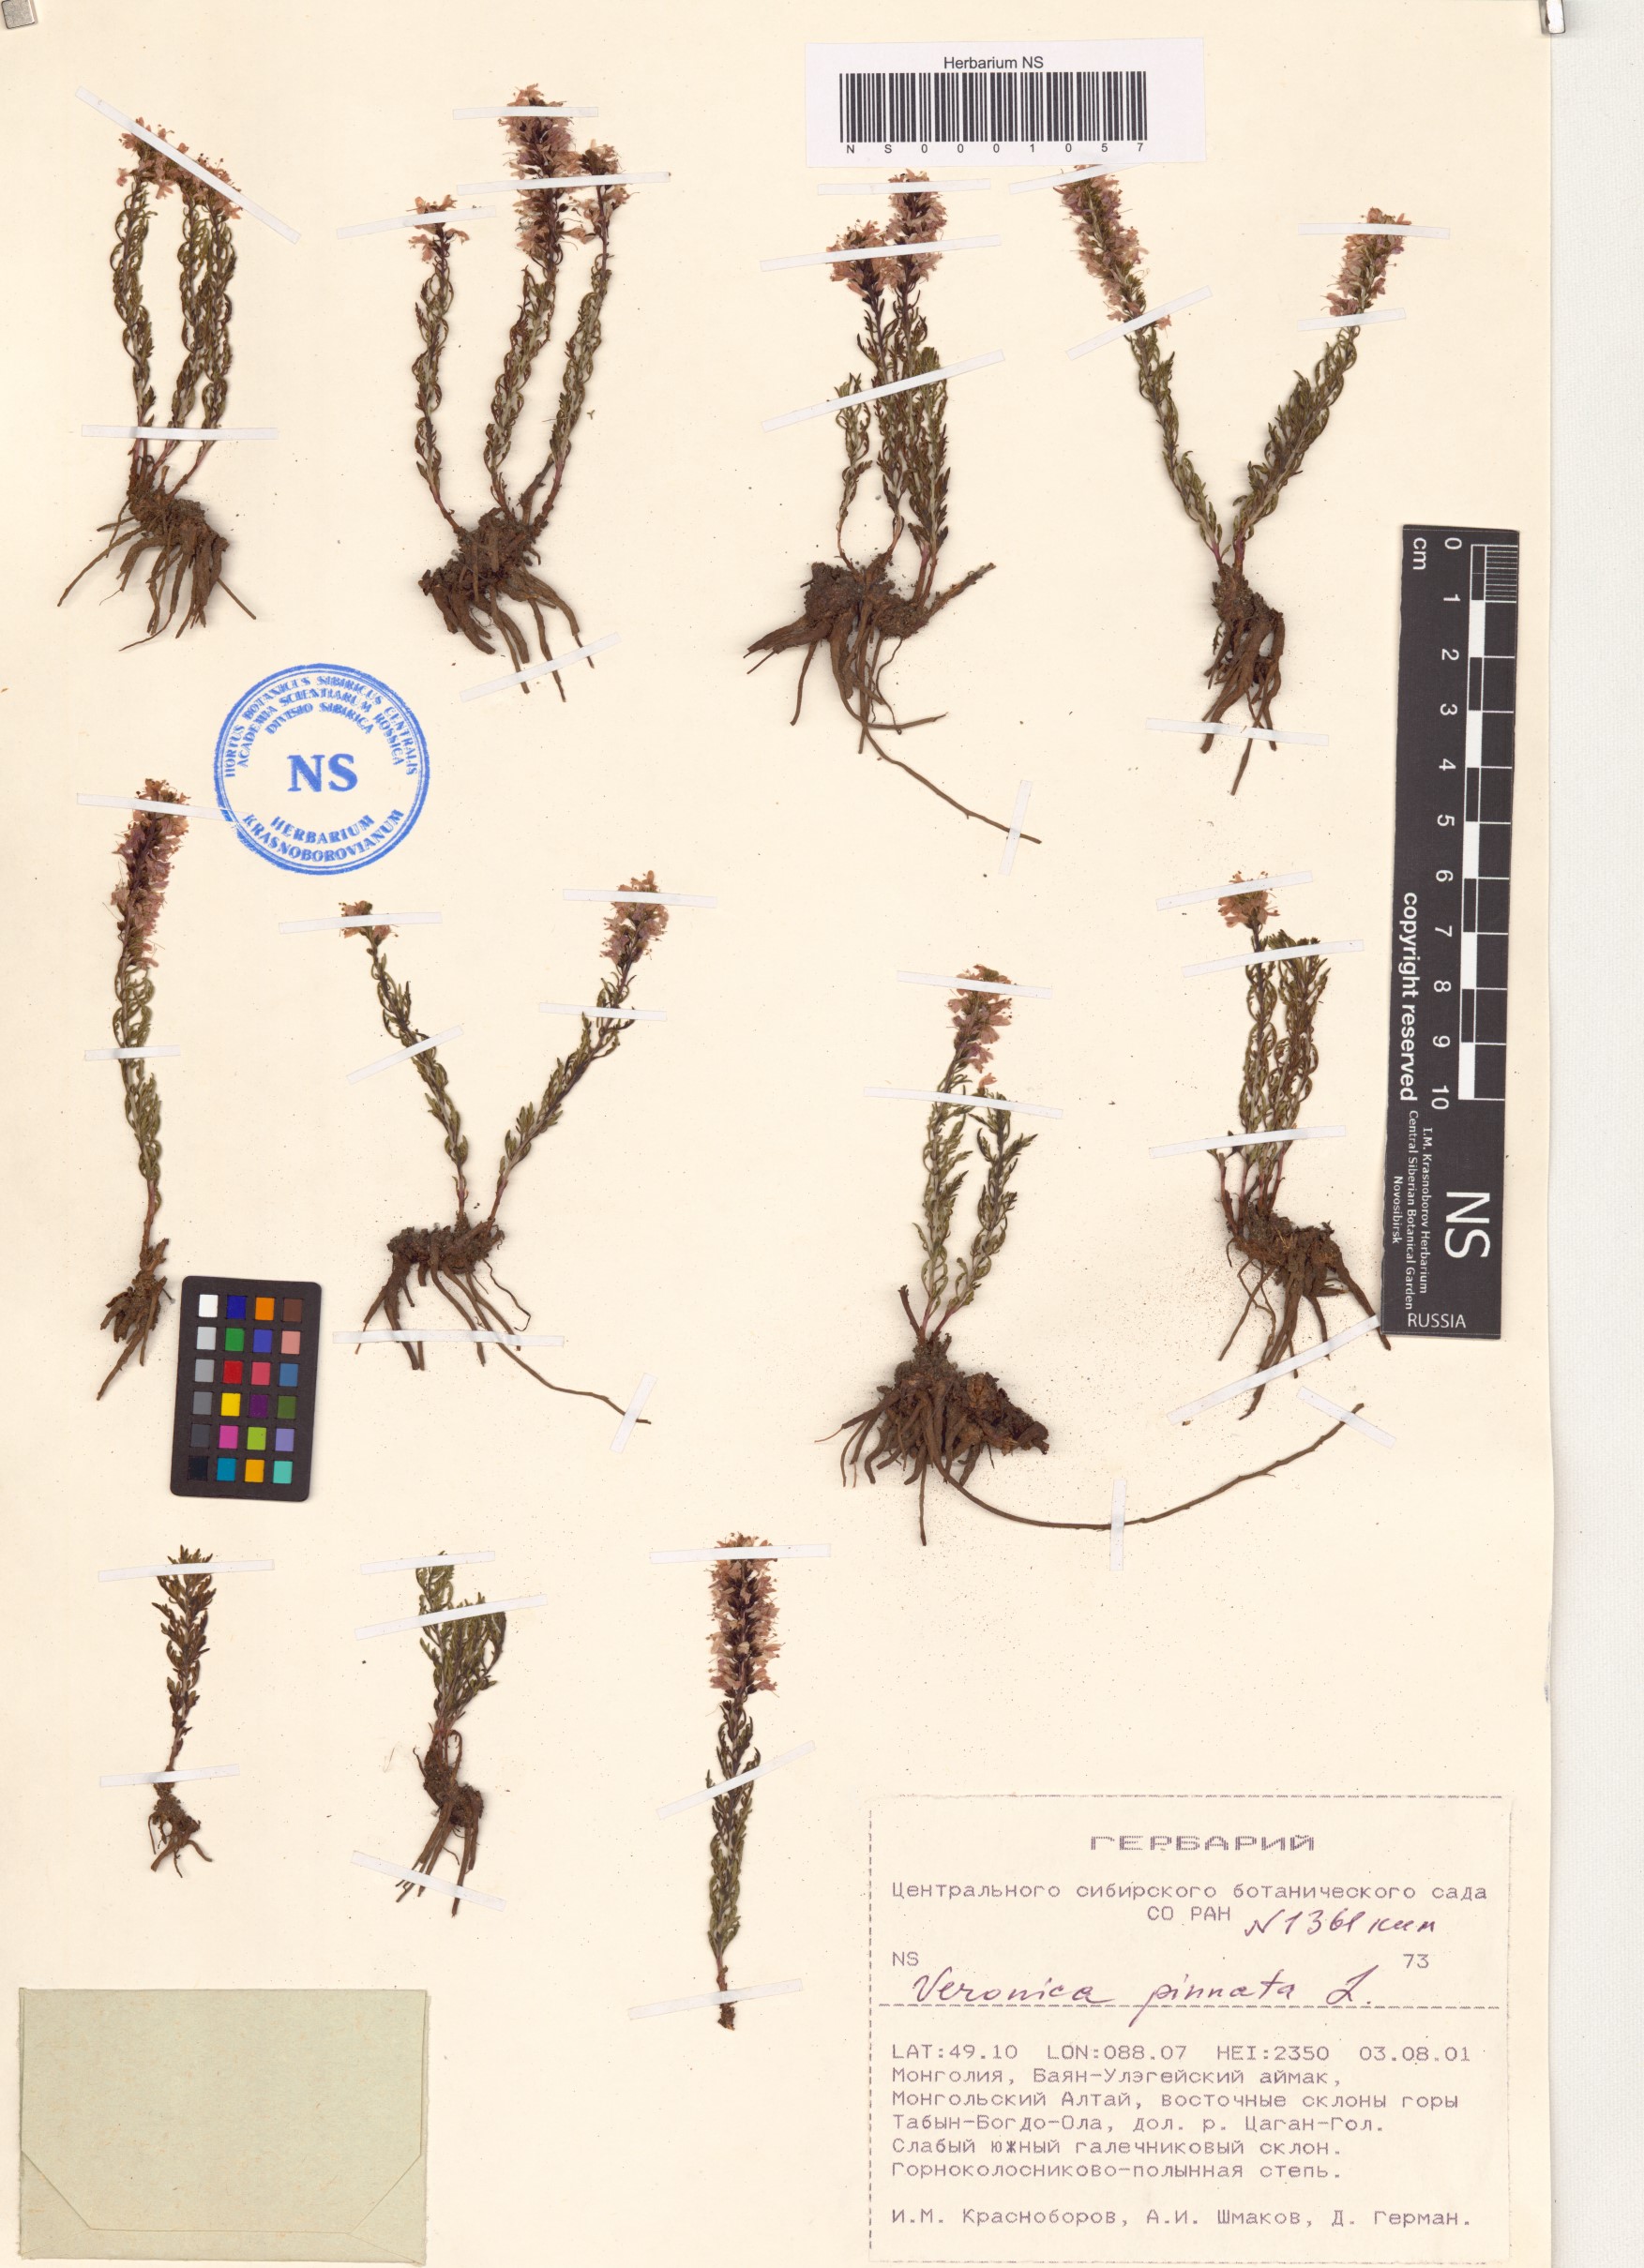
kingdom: Plantae
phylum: Tracheophyta
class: Magnoliopsida
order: Lamiales
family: Plantaginaceae
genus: Veronica
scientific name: Veronica pinnata
